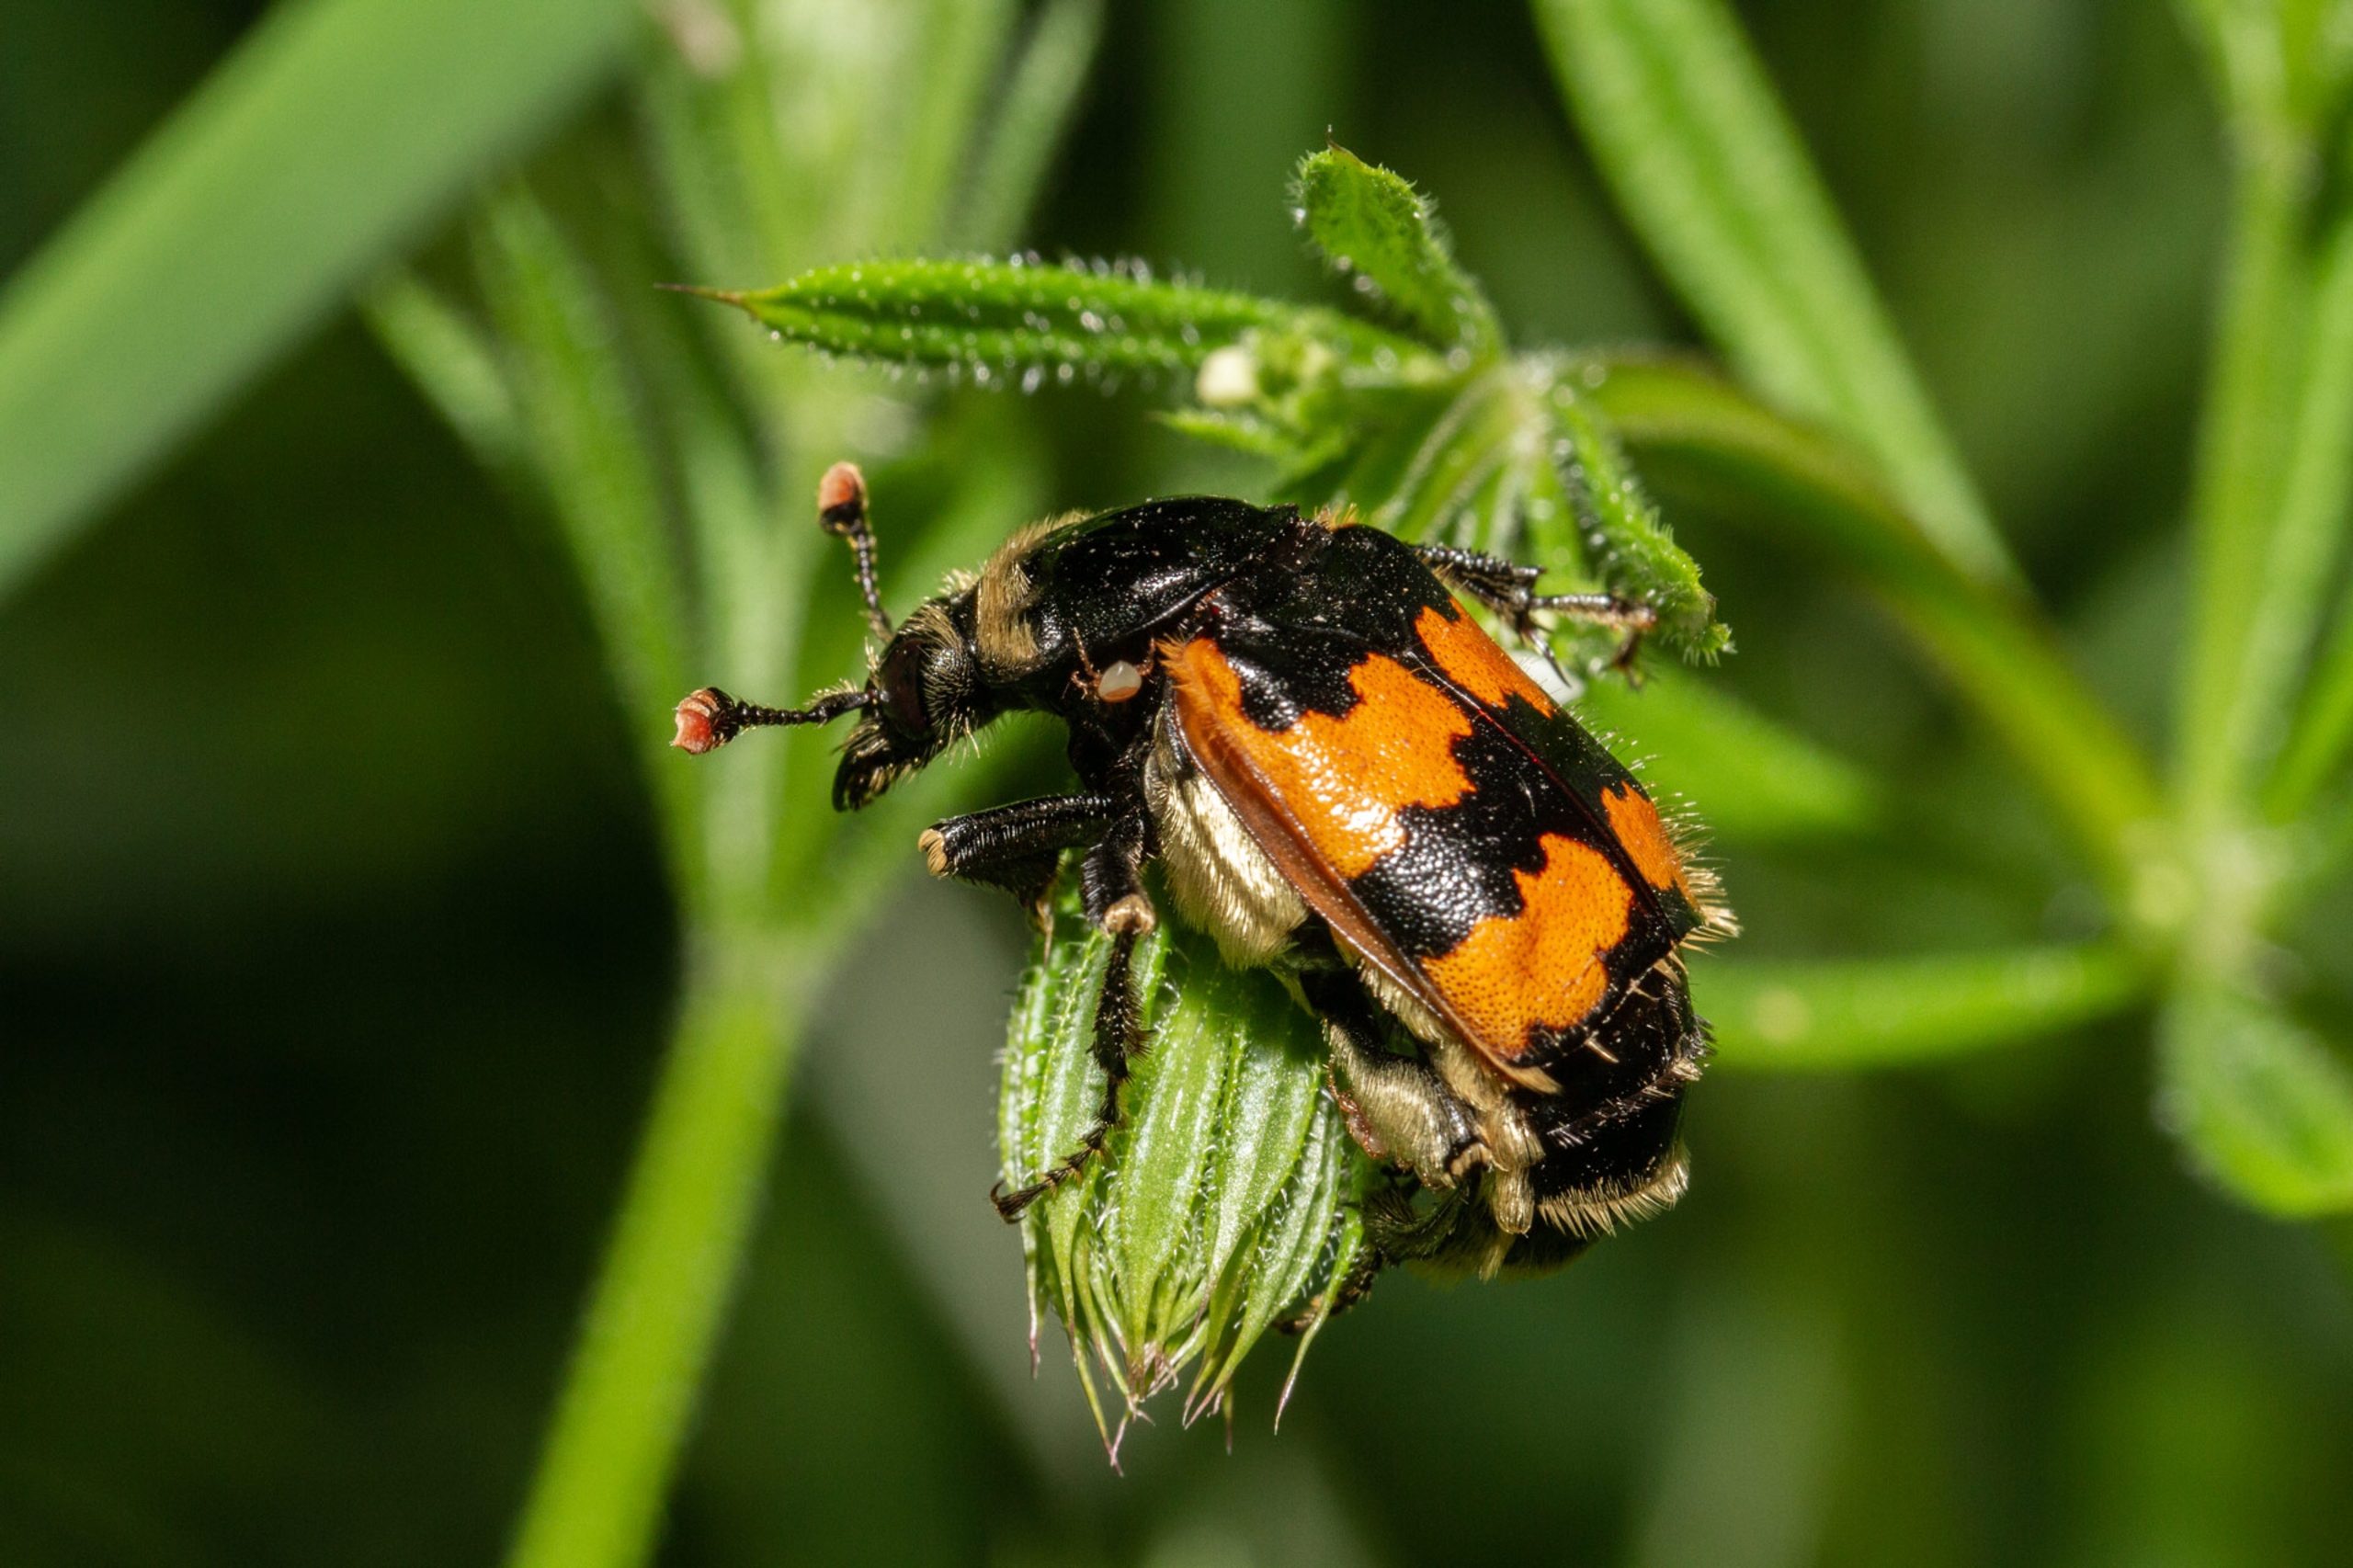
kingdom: Animalia
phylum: Arthropoda
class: Insecta
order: Coleoptera
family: Staphylinidae
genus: Nicrophorus
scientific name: Nicrophorus vespillo
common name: Krumbenet ådselgraver
